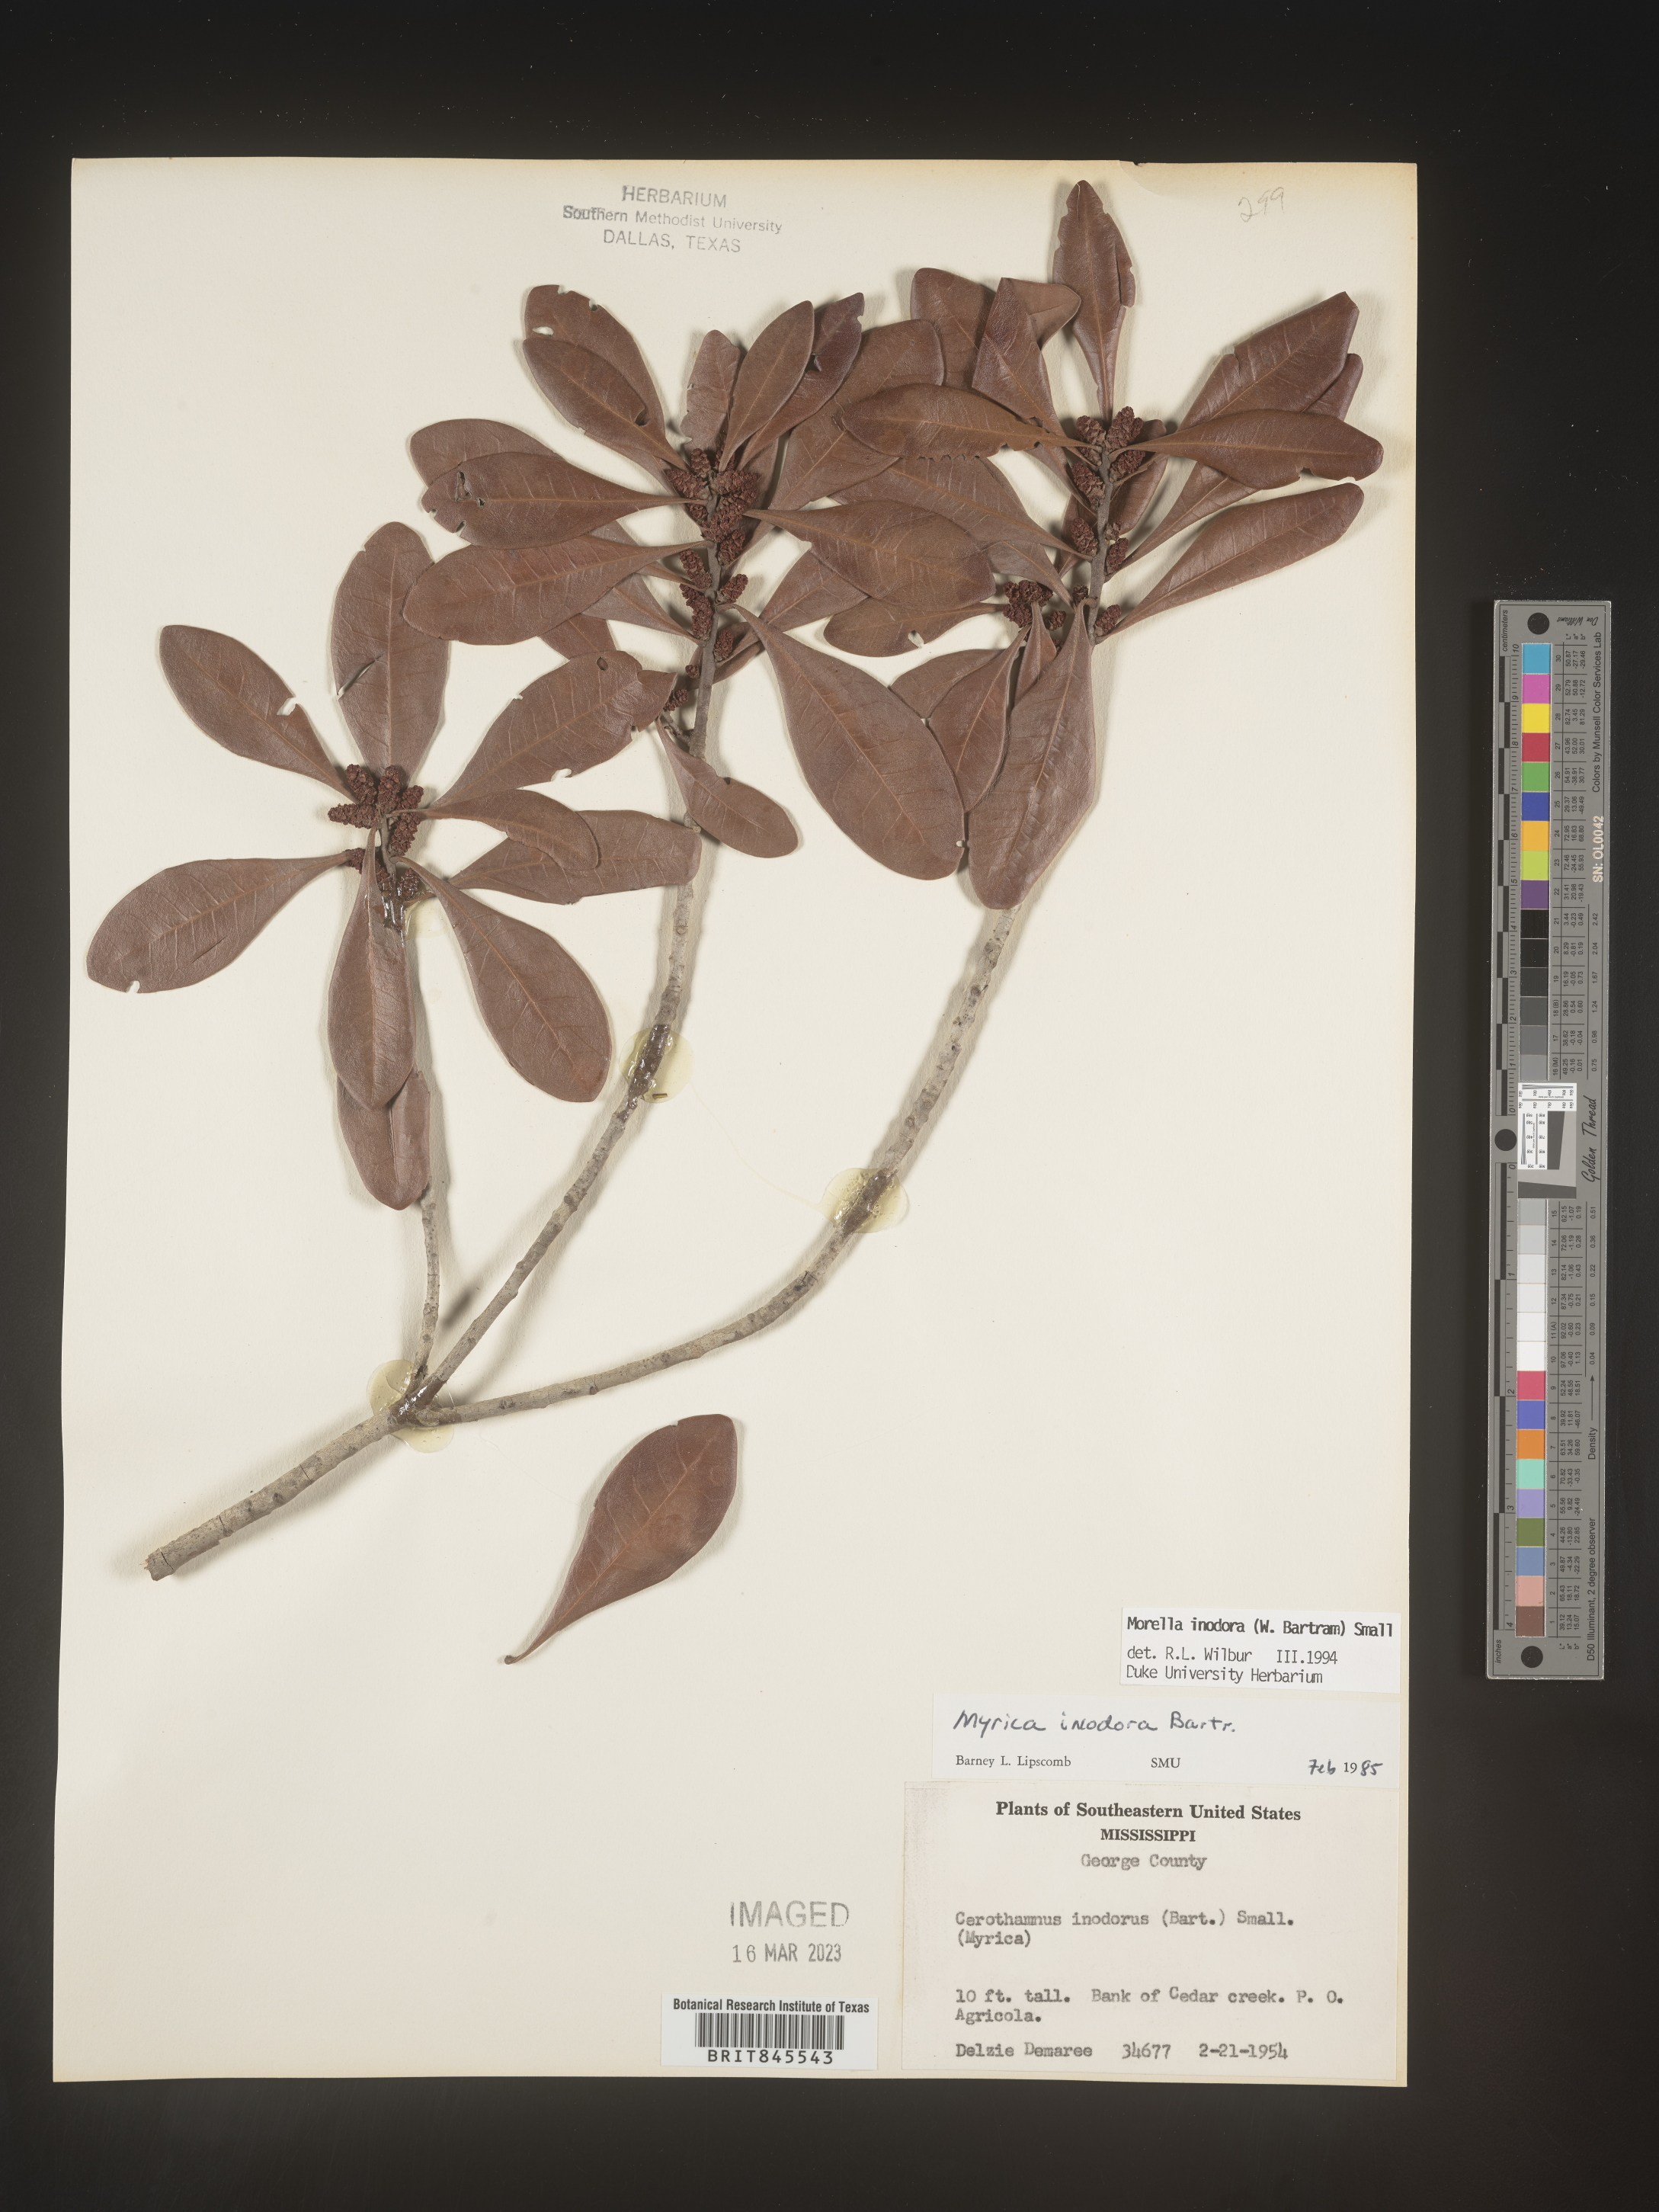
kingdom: Plantae
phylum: Tracheophyta
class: Magnoliopsida
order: Fagales
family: Myricaceae
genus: Myrica
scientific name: Myrica
